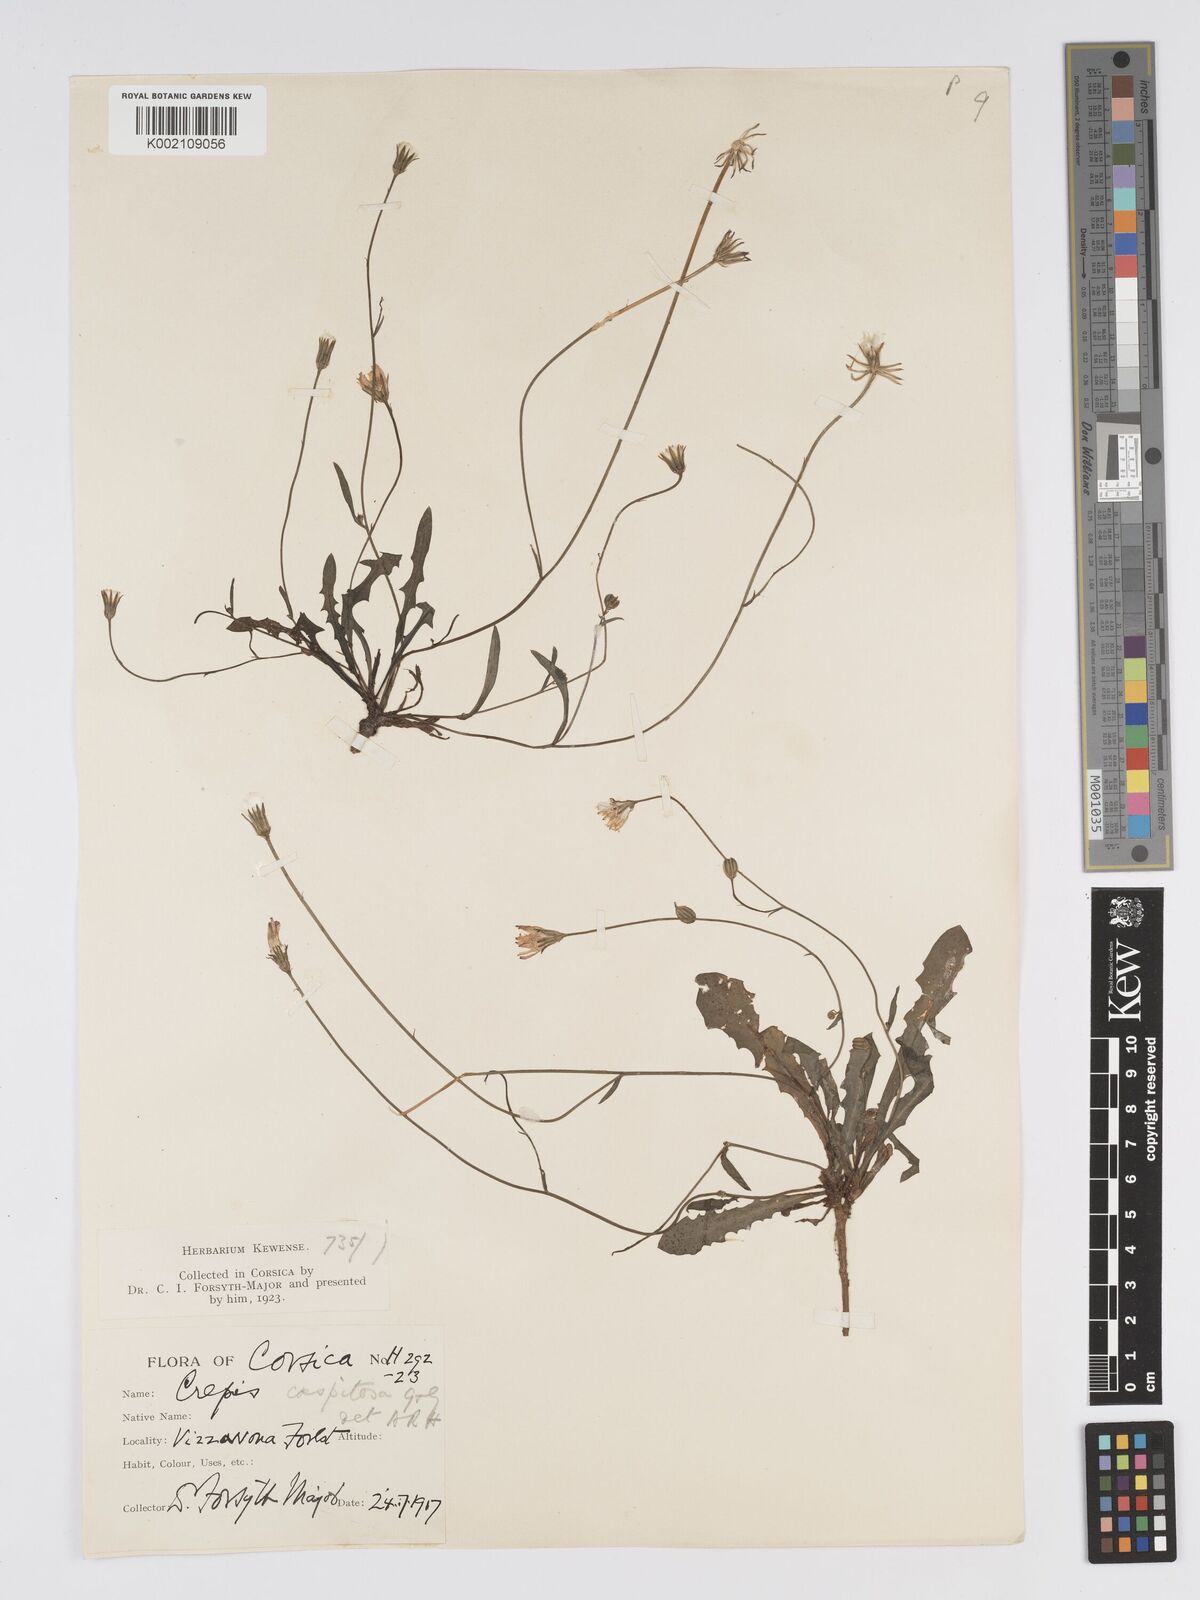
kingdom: Plantae
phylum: Tracheophyta
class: Magnoliopsida
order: Asterales
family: Asteraceae
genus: Crepis
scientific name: Crepis bellidifolia
